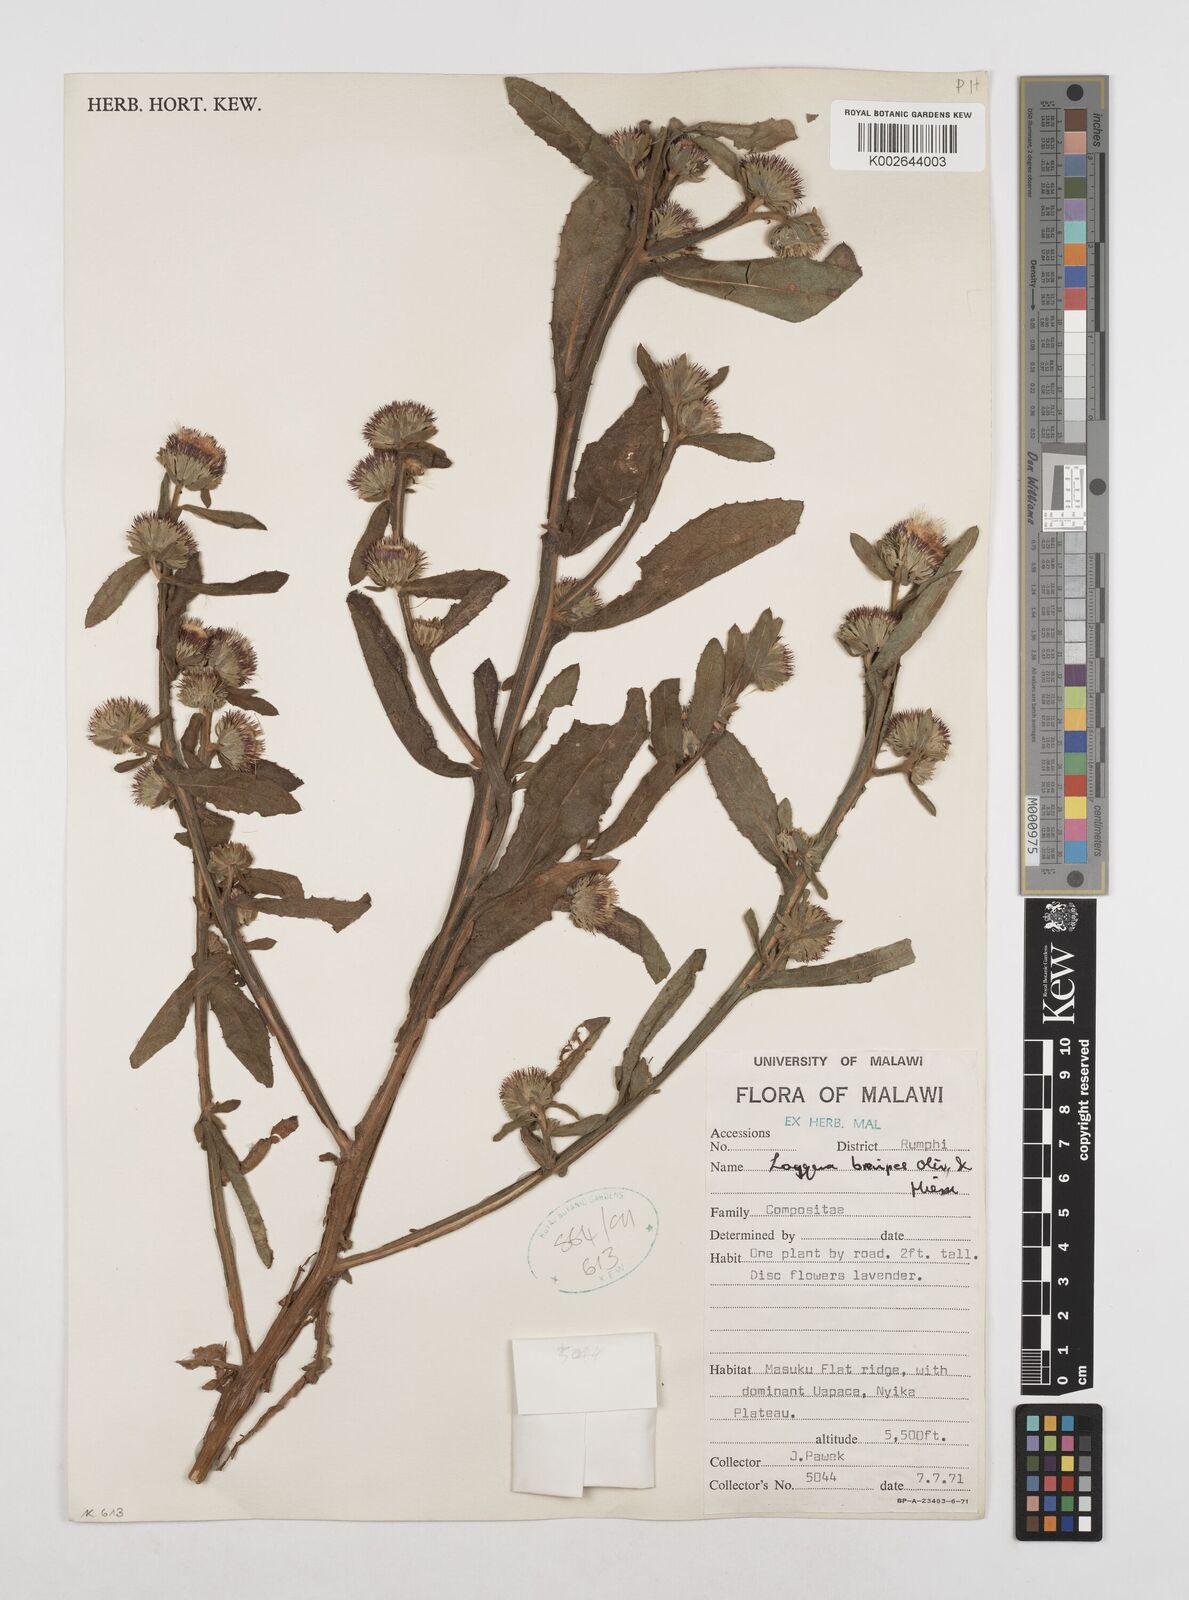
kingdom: Plantae
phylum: Tracheophyta
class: Magnoliopsida
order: Asterales
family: Asteraceae
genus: Laggera
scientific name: Laggera brevipes
